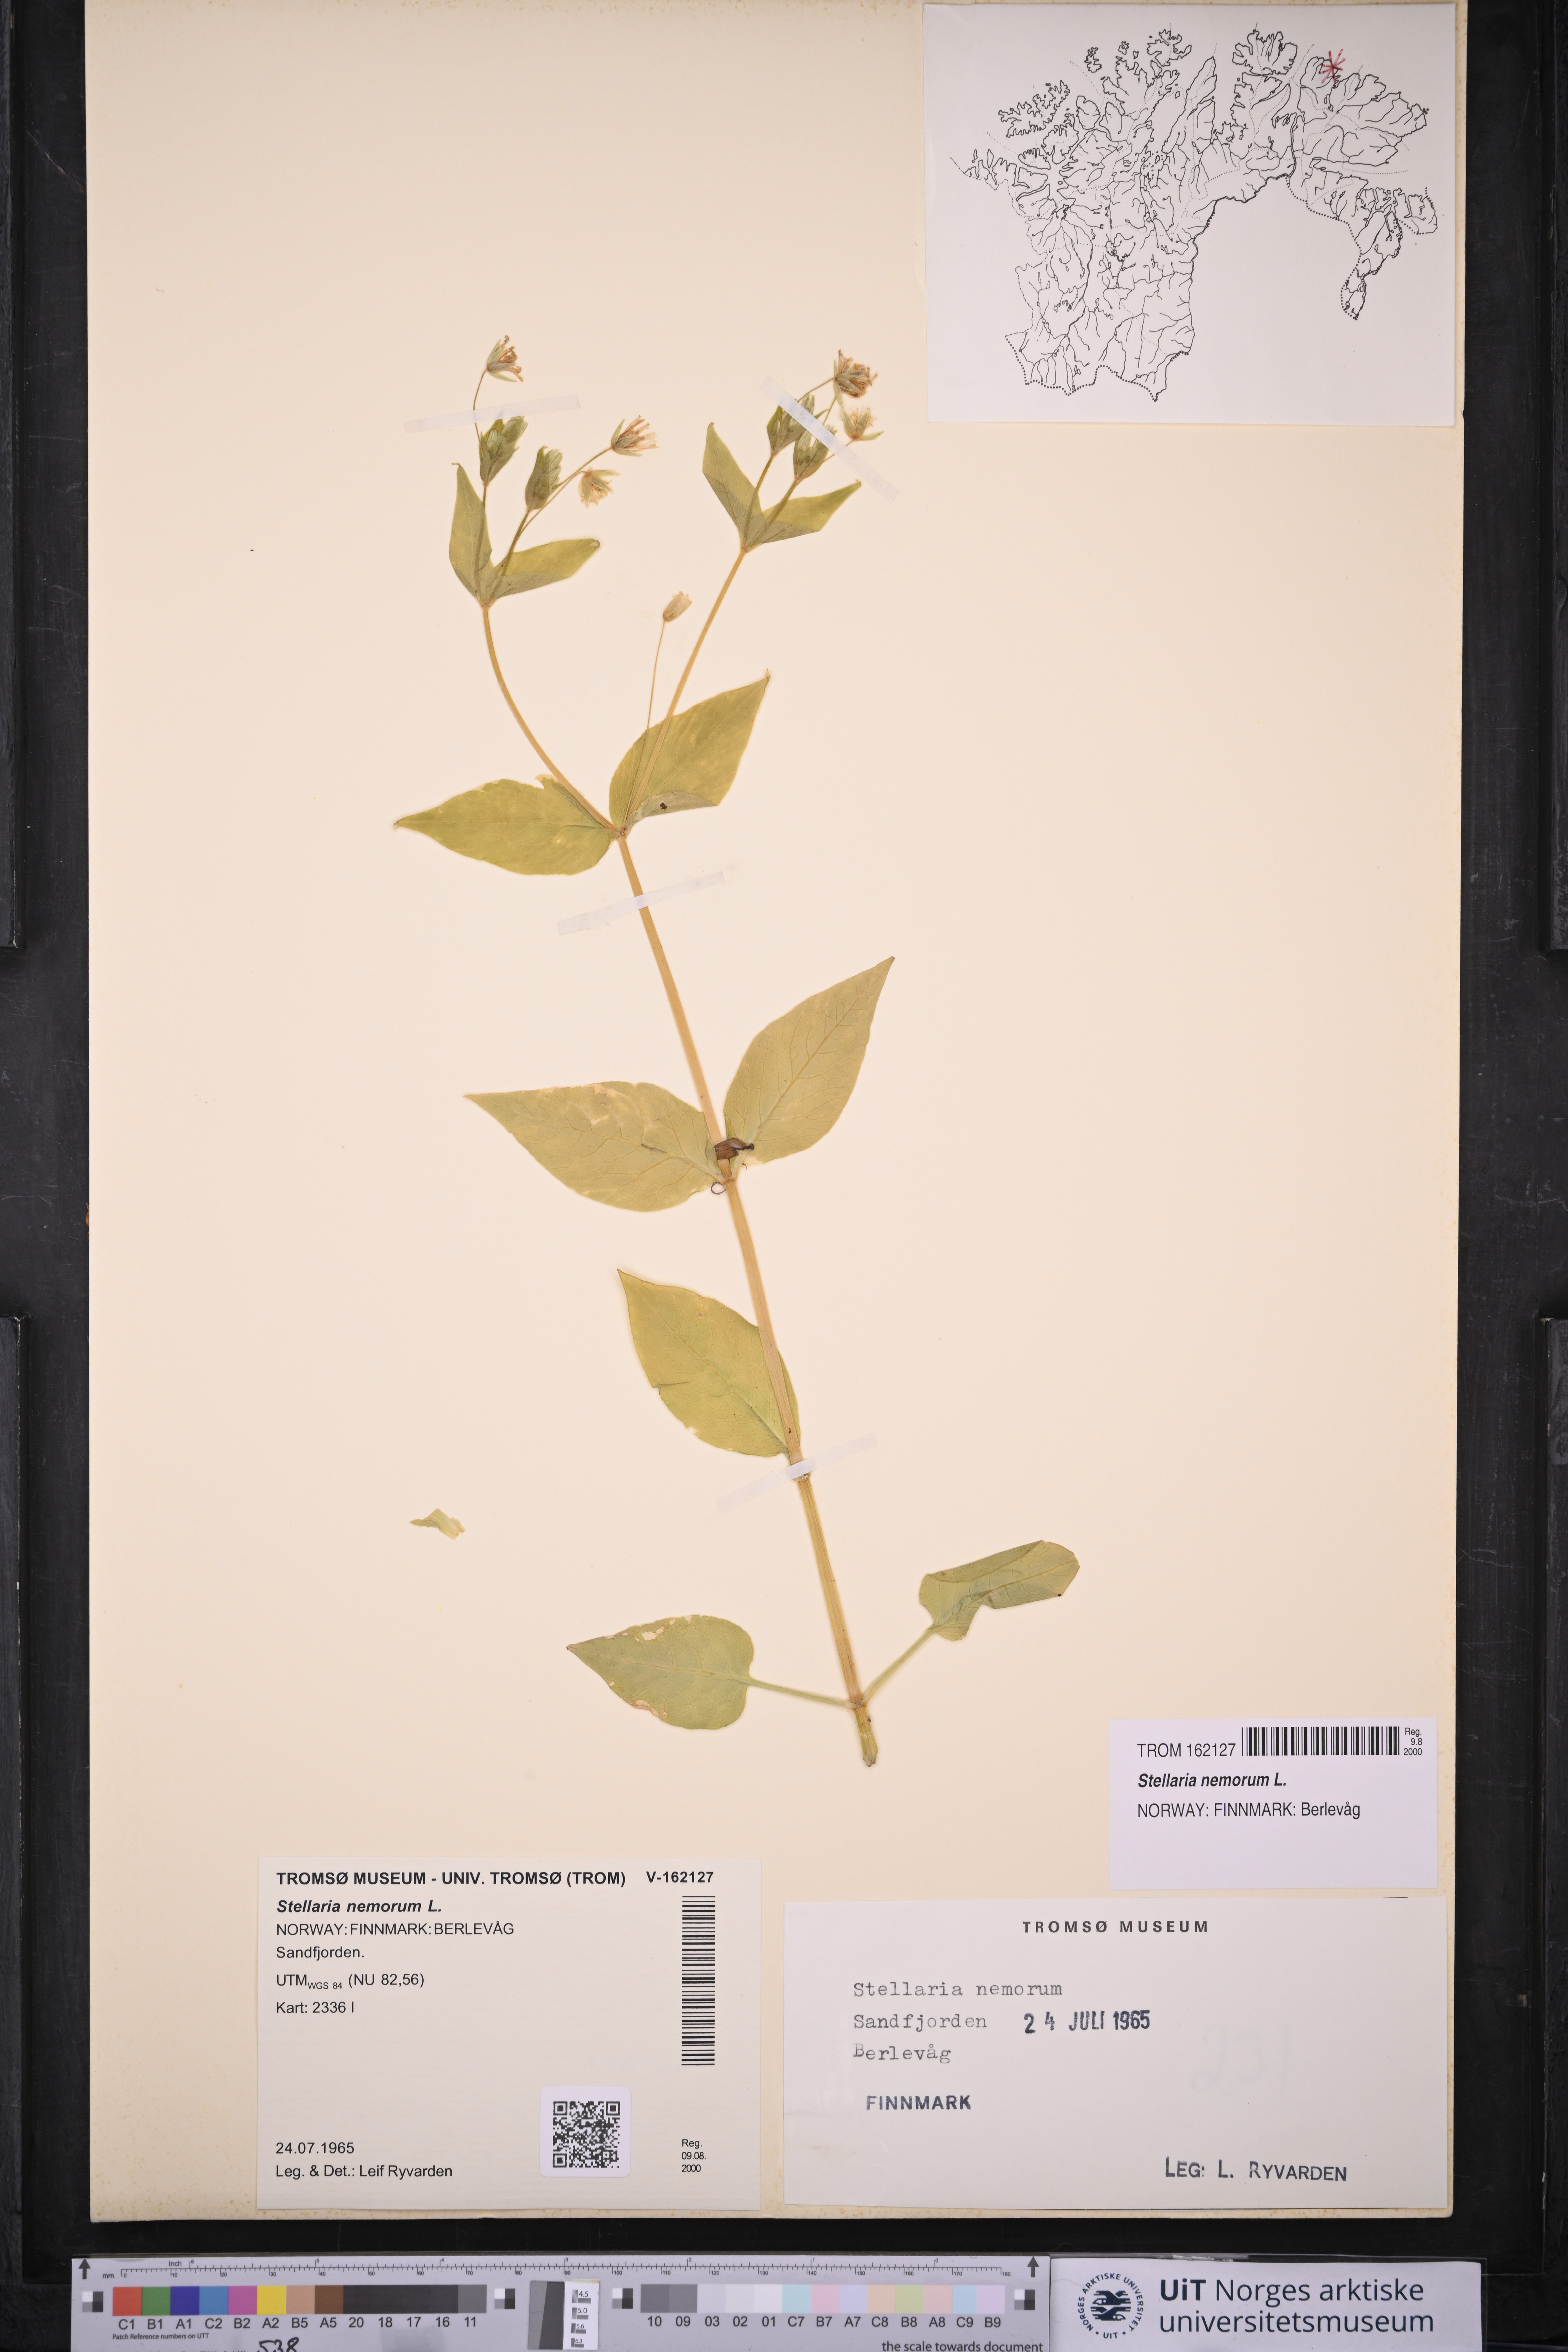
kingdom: Plantae
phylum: Tracheophyta
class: Magnoliopsida
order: Caryophyllales
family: Caryophyllaceae
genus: Stellaria
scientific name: Stellaria nemorum
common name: Wood stitchwort
